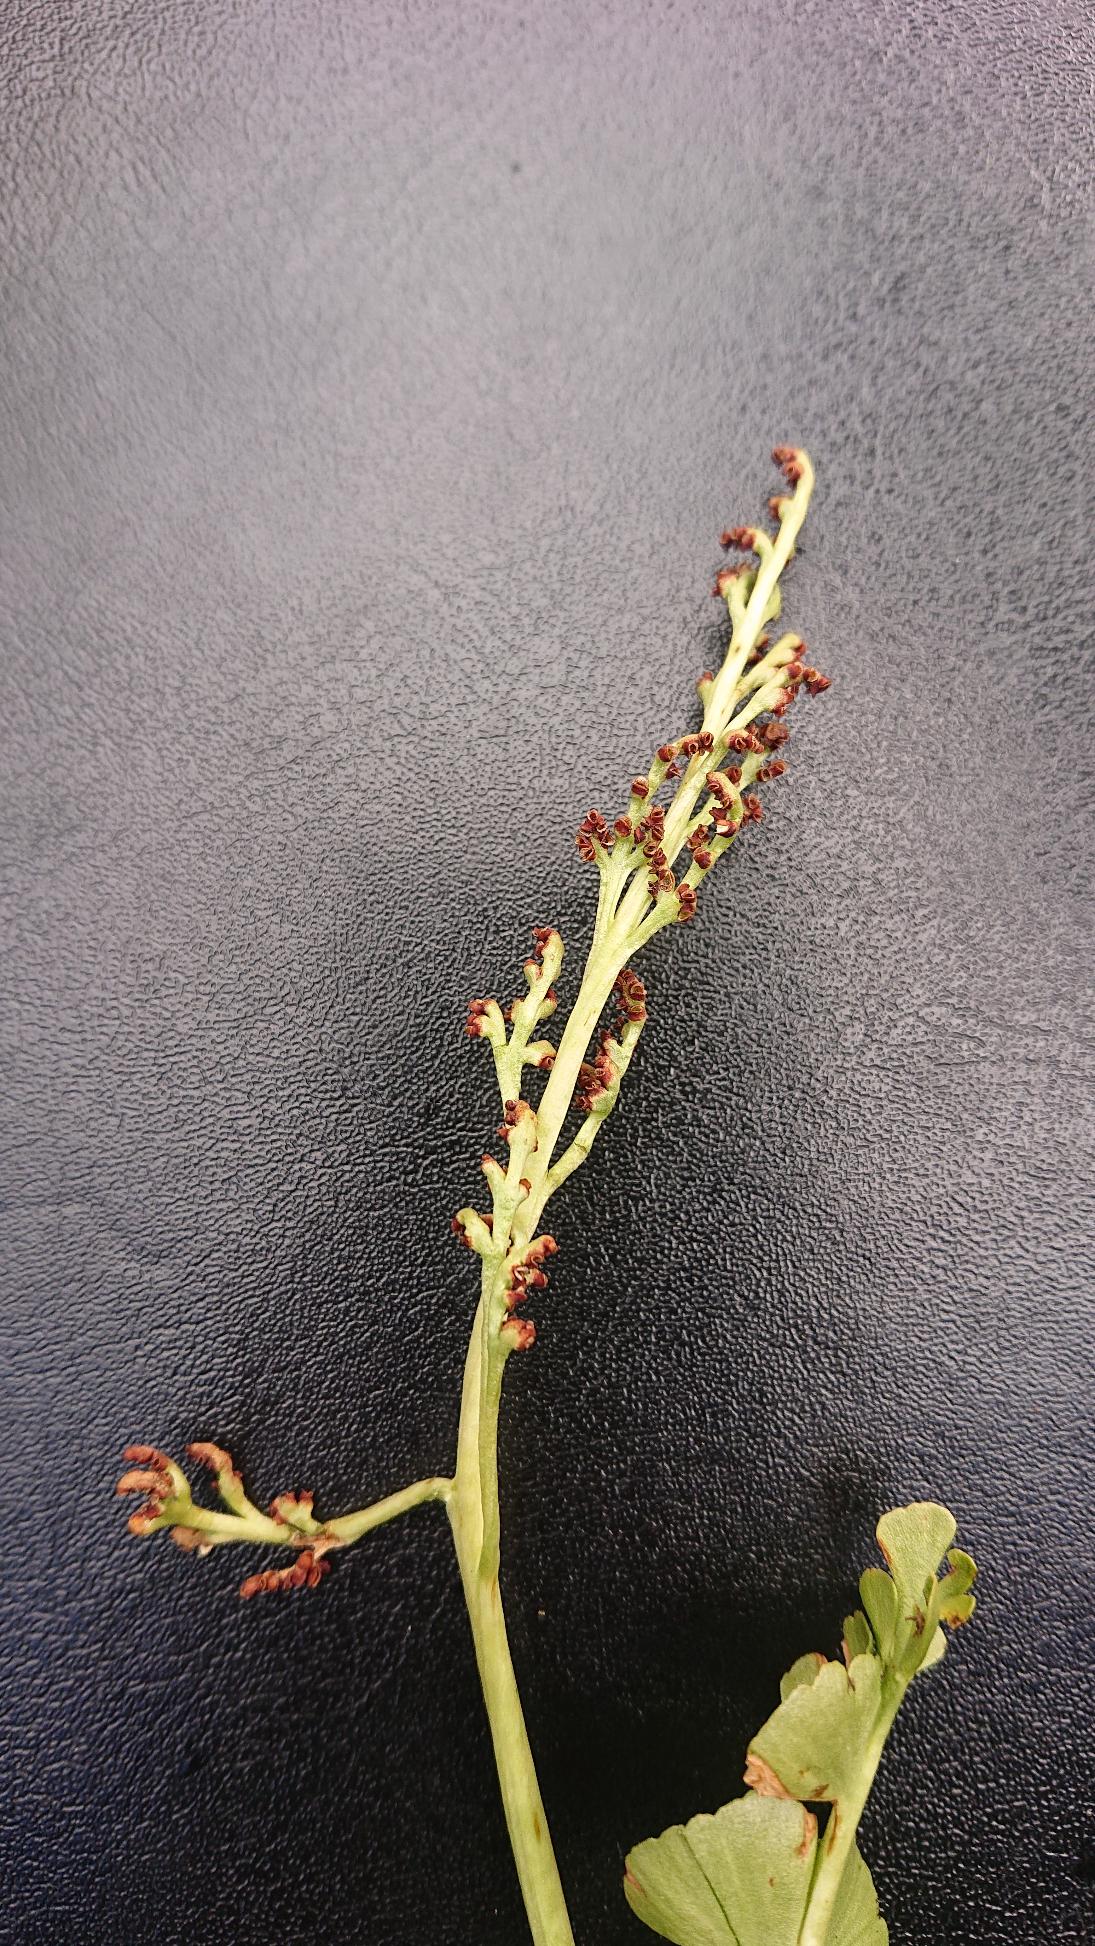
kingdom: Plantae
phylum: Tracheophyta
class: Polypodiopsida
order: Ophioglossales
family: Ophioglossaceae
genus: Botrychium
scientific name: Botrychium lunaria
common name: Almindelig månerude
